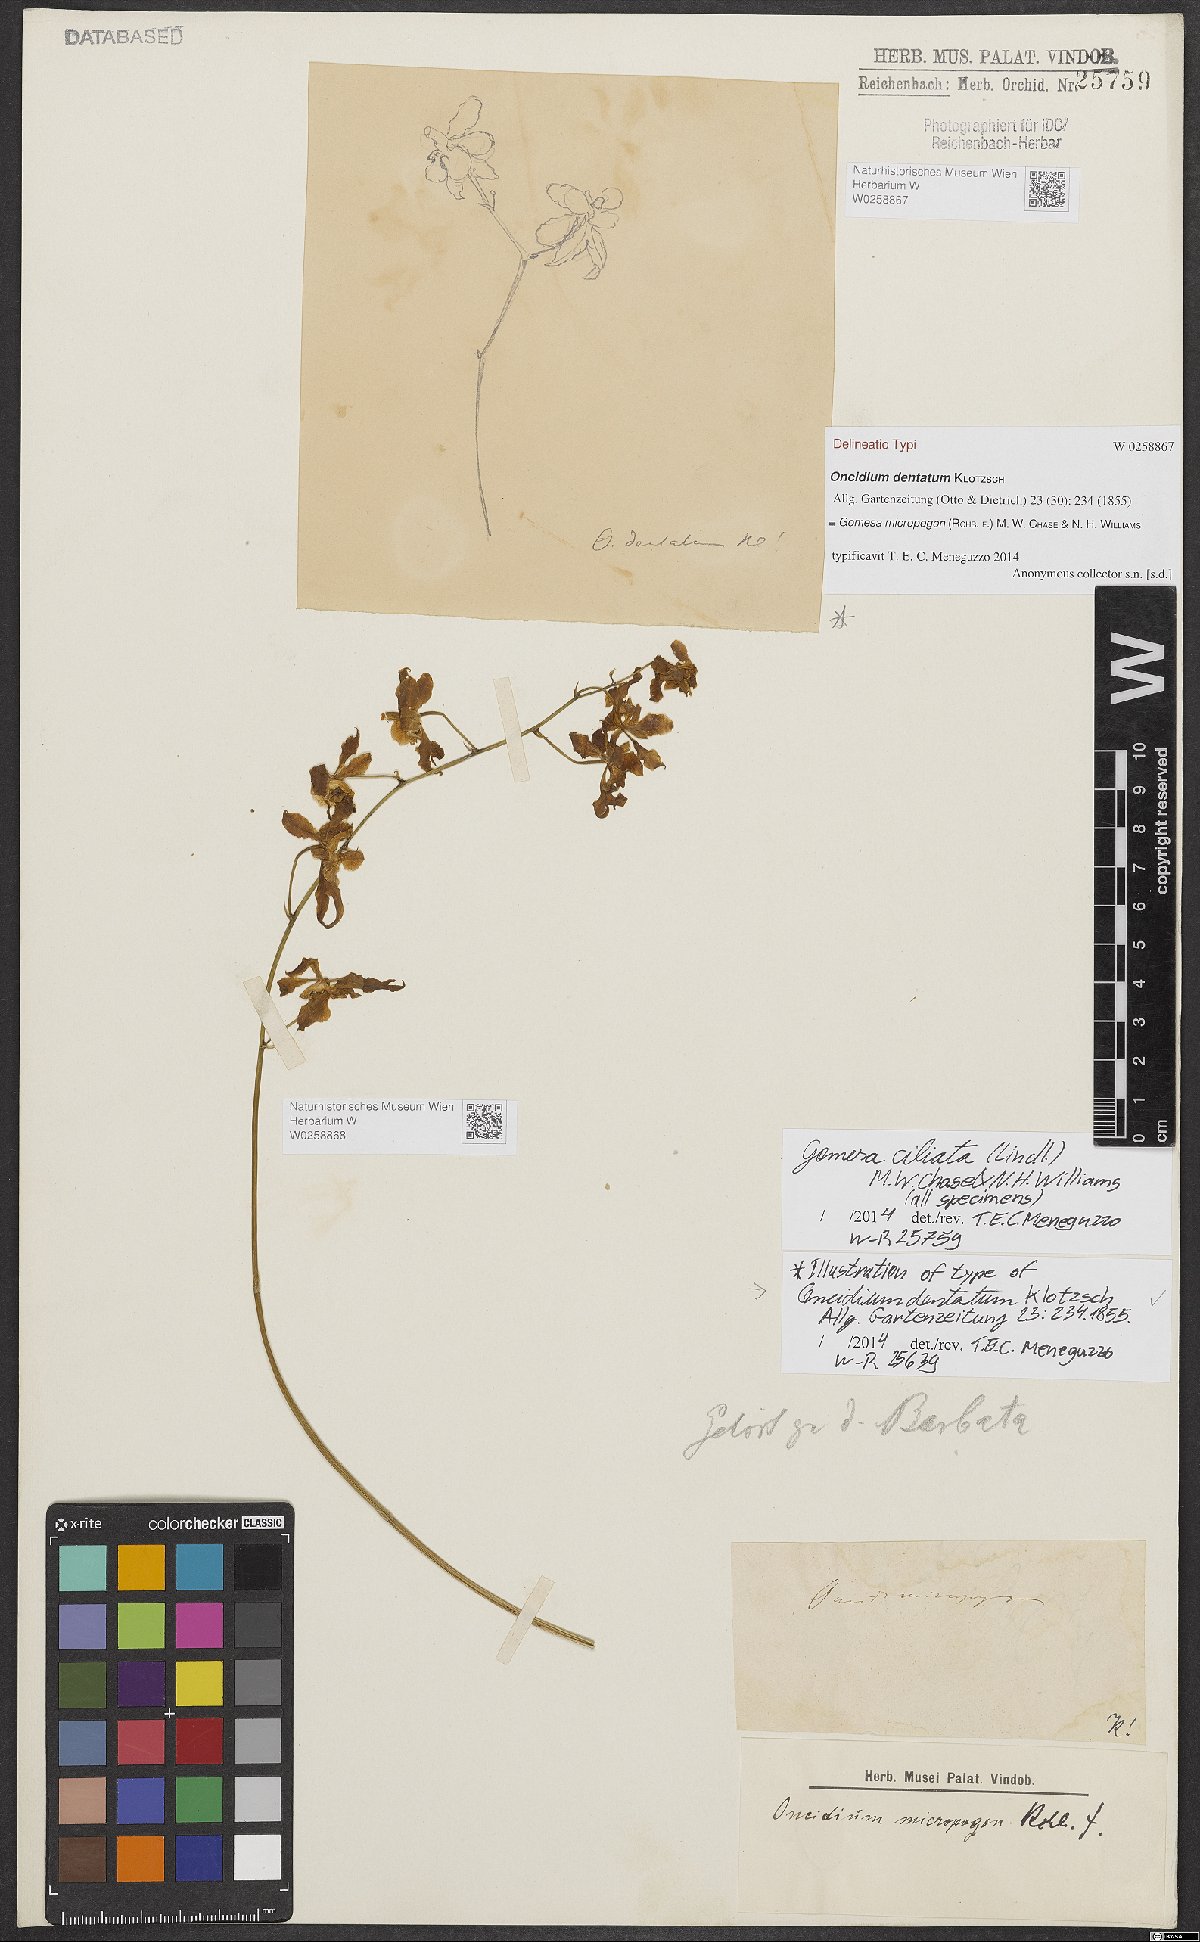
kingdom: Plantae
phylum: Tracheophyta
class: Liliopsida
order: Asparagales
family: Orchidaceae
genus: Gomesa
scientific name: Gomesa micropogon
